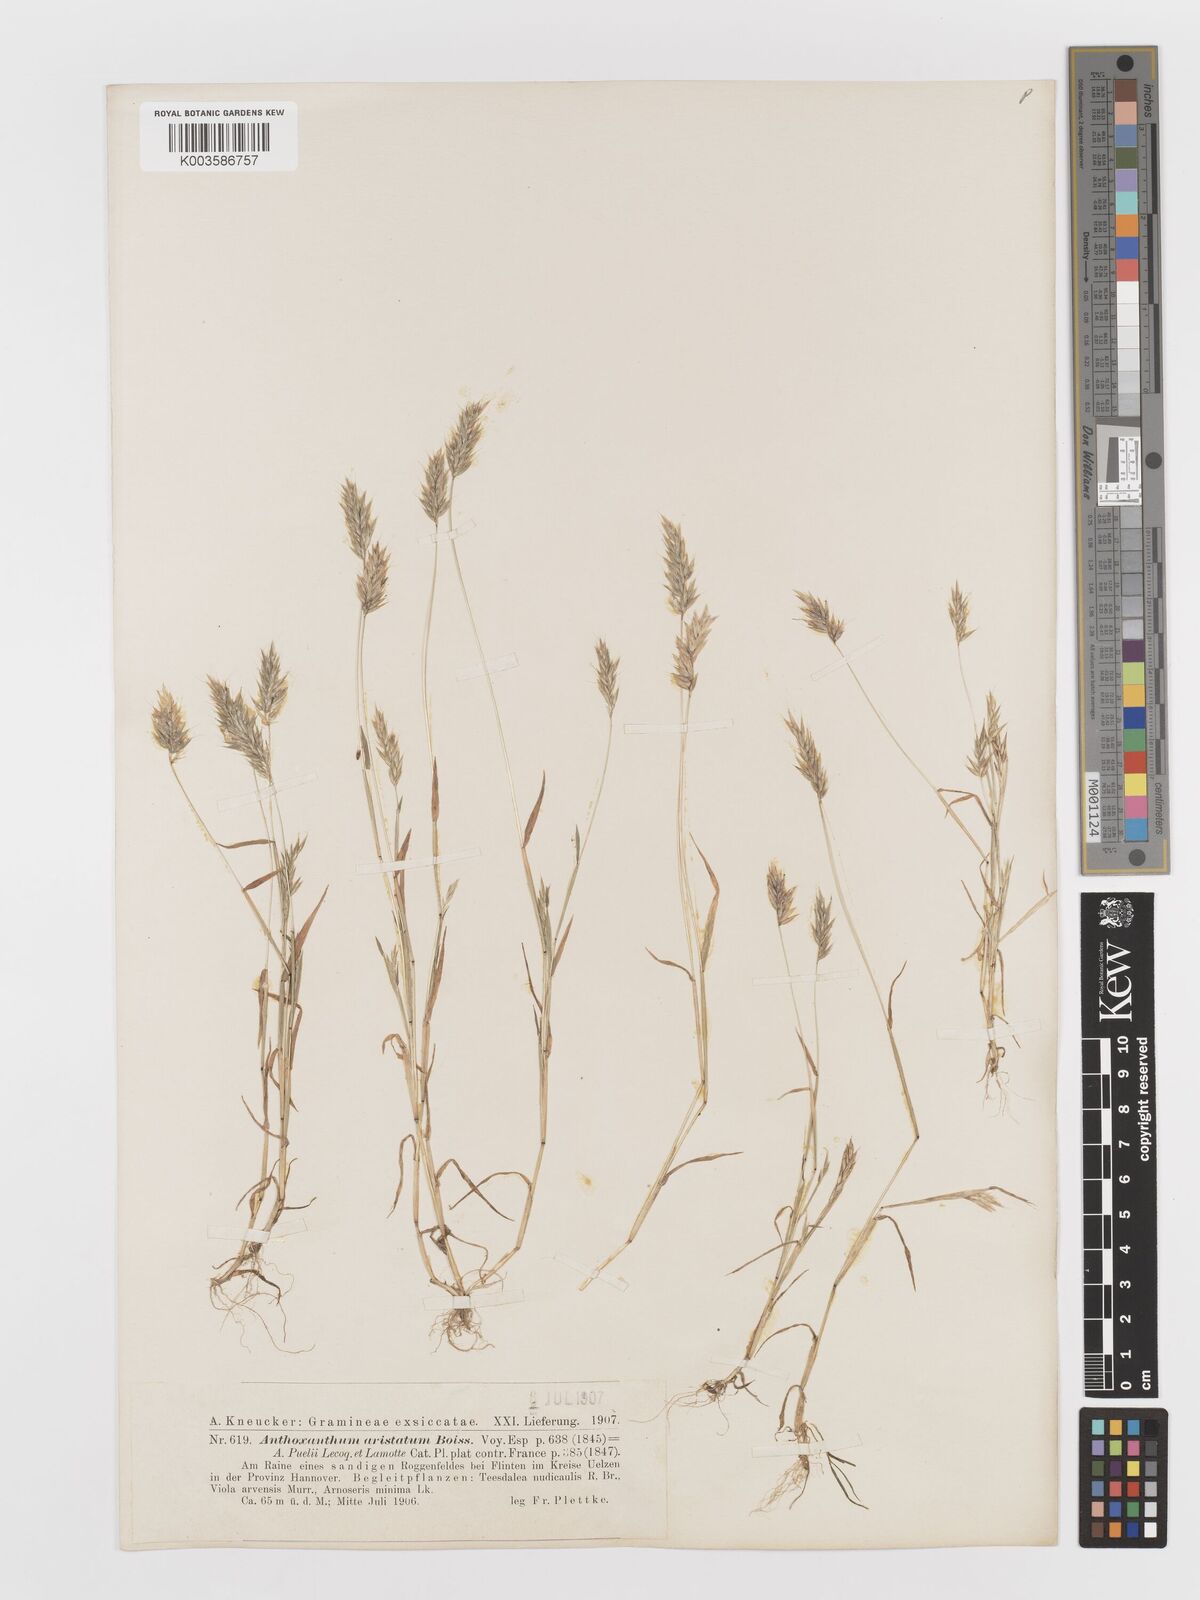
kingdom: Plantae
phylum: Tracheophyta
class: Liliopsida
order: Poales
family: Poaceae
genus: Anthoxanthum
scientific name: Anthoxanthum aristatum
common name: Annual vernal-grass
